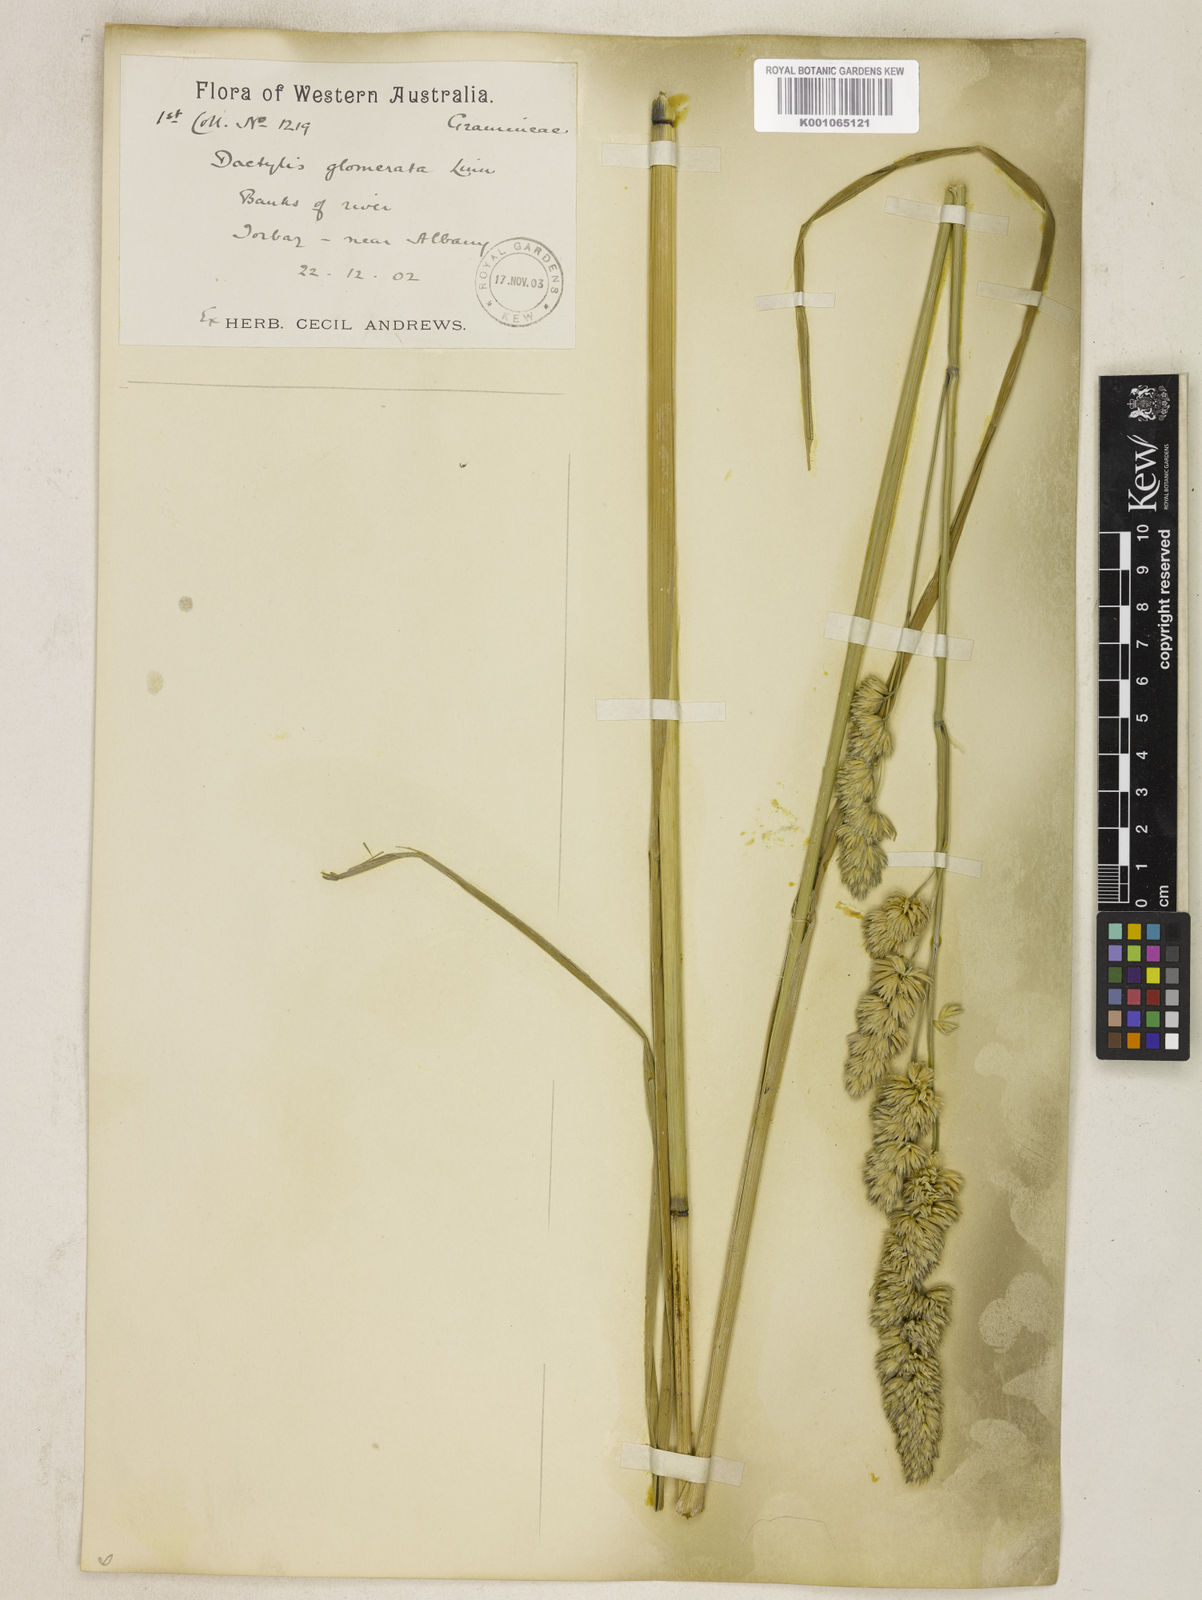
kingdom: Plantae
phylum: Tracheophyta
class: Liliopsida
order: Poales
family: Poaceae
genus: Dactylis
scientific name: Dactylis glomerata
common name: Orchardgrass
